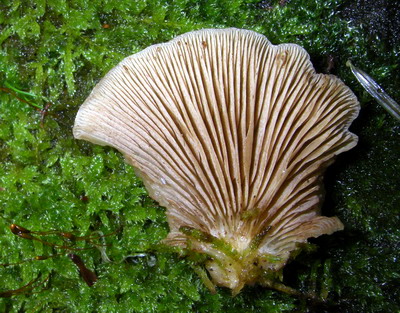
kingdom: Fungi
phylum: Basidiomycota
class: Agaricomycetes
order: Agaricales
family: Crepidotaceae
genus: Crepidotus
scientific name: Crepidotus mollis
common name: blød muslingesvamp
